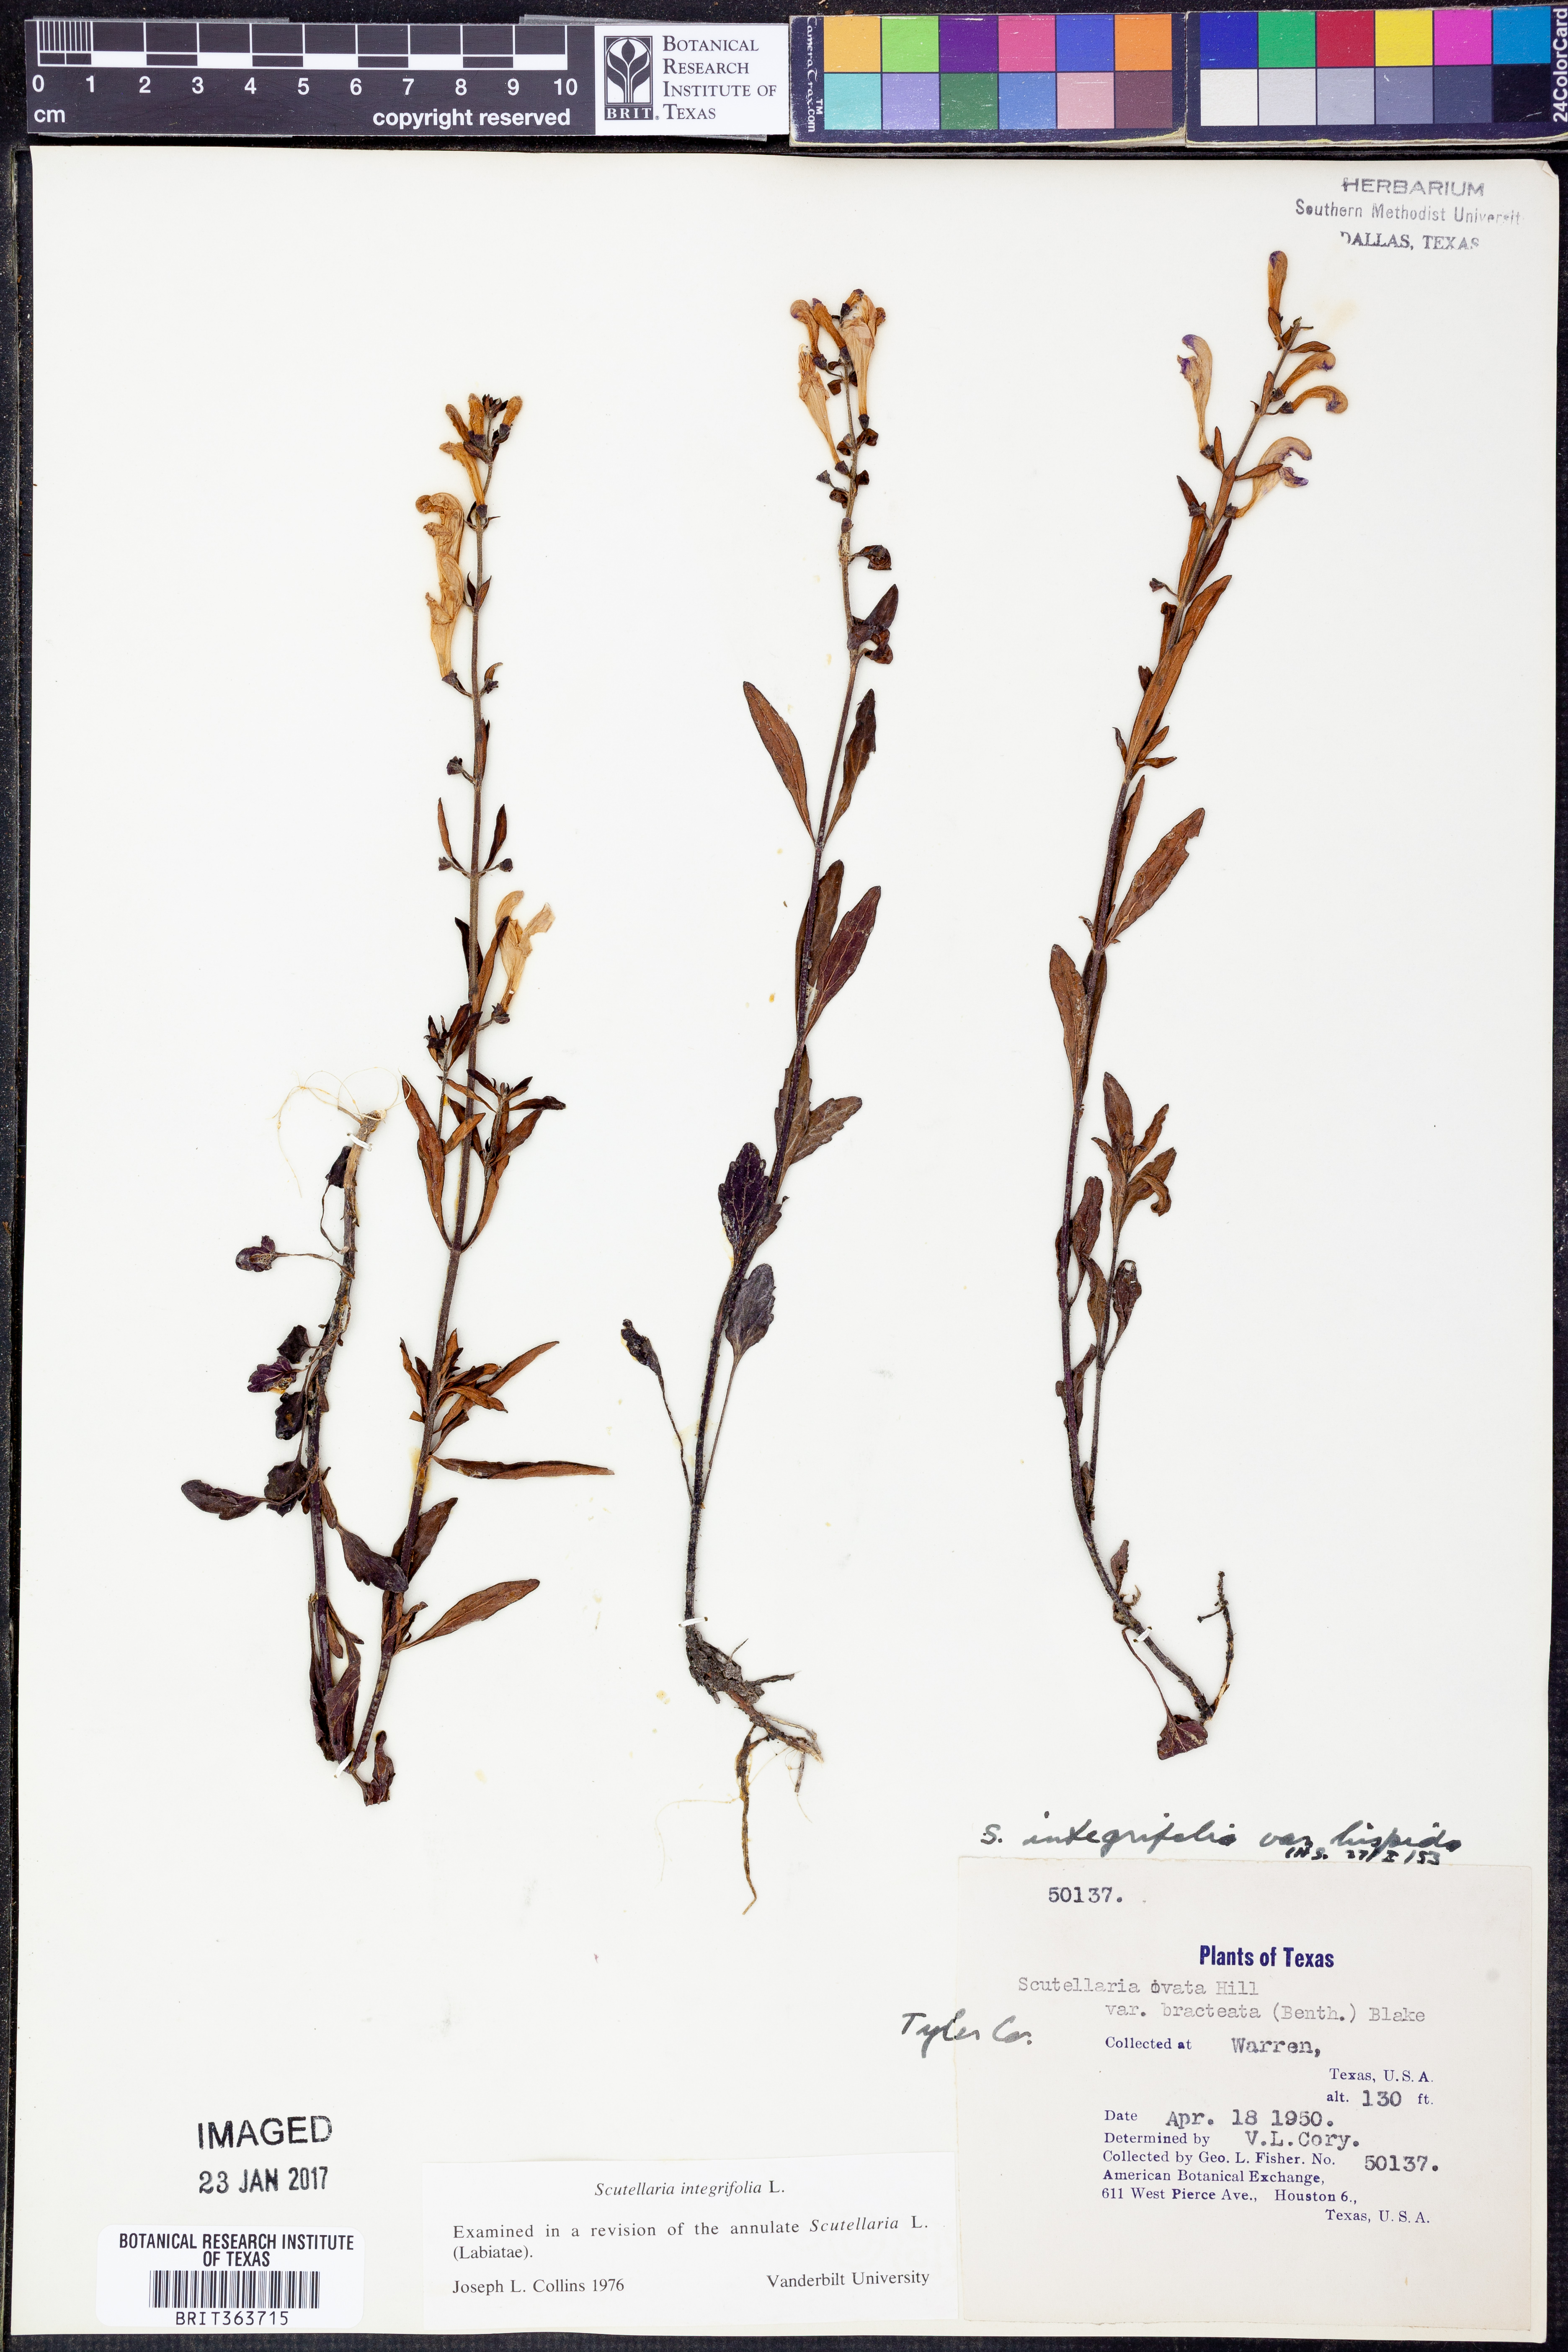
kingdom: Plantae
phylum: Tracheophyta
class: Magnoliopsida
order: Lamiales
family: Lamiaceae
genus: Scutellaria
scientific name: Scutellaria integrifolia
